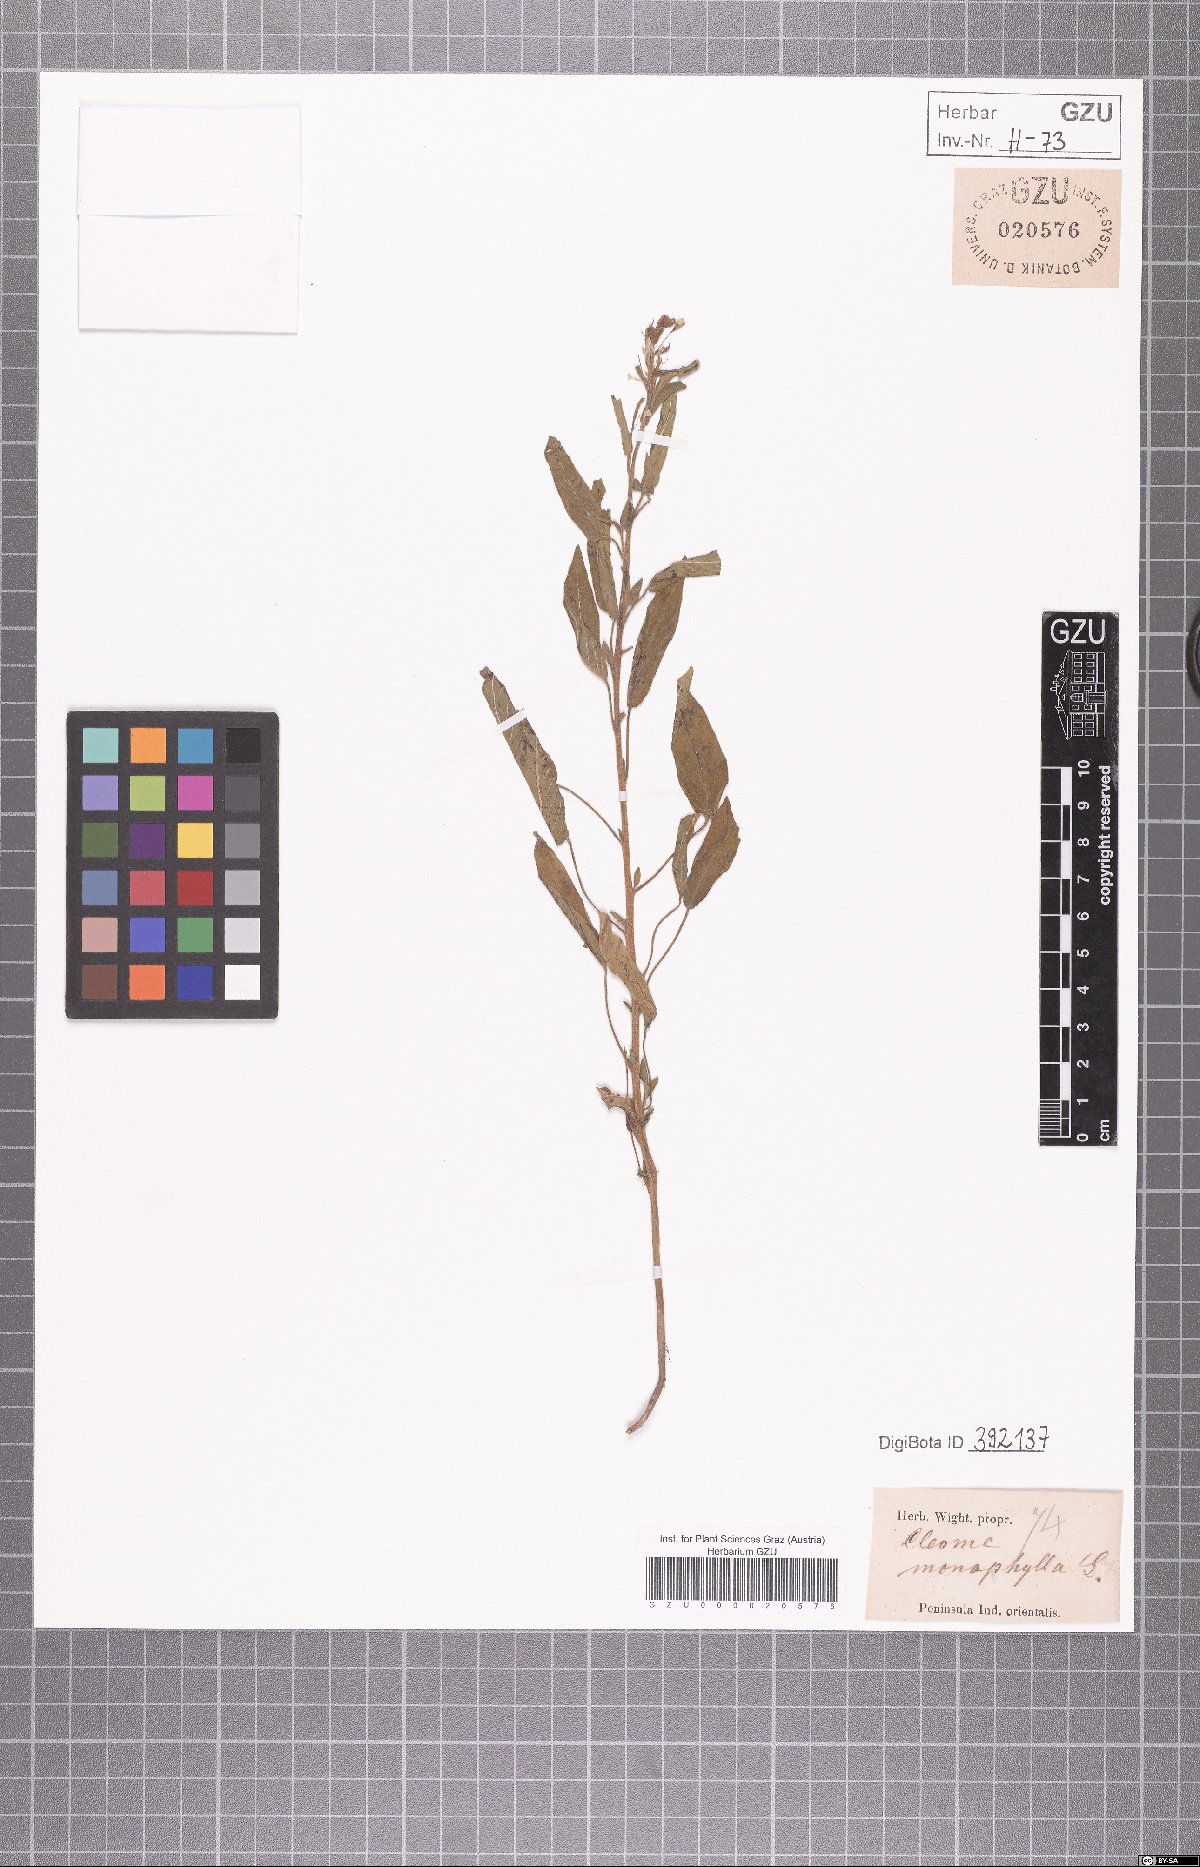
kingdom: Plantae
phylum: Tracheophyta
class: Magnoliopsida
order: Brassicales
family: Cleomaceae
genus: Sieruela
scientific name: Sieruela monophylla
